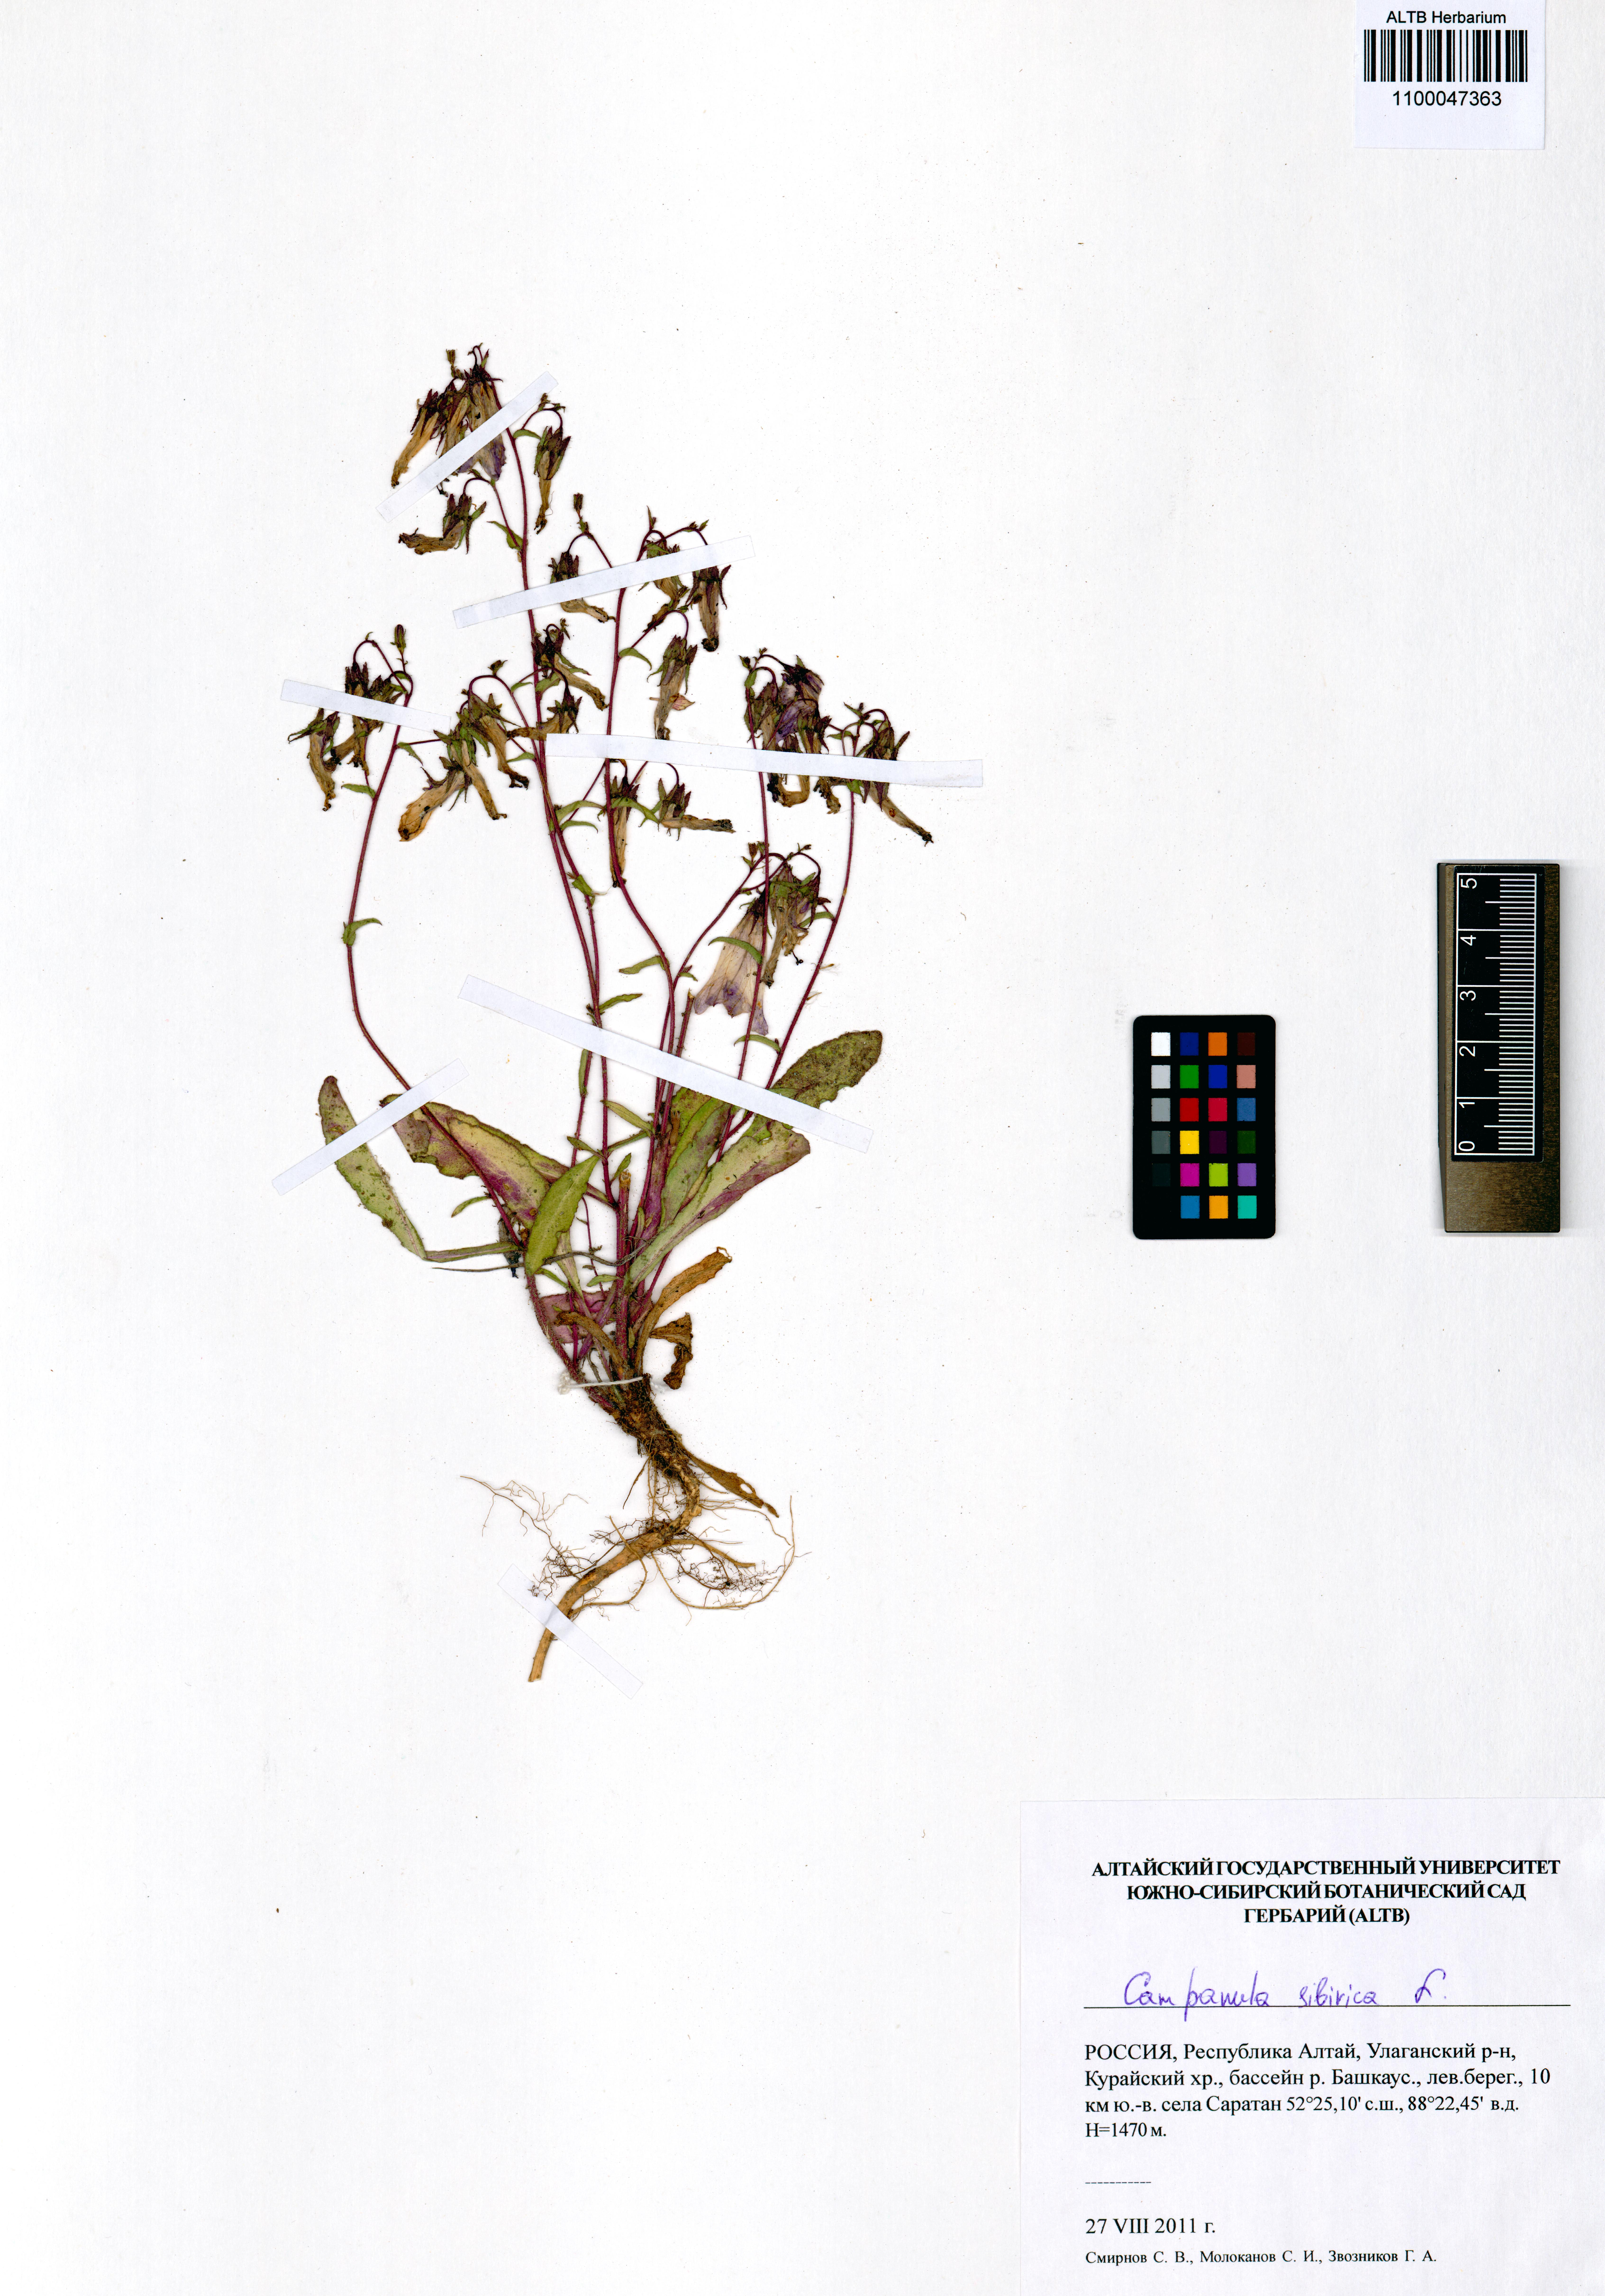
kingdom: Plantae
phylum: Tracheophyta
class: Magnoliopsida
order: Asterales
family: Campanulaceae
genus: Campanula
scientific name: Campanula sibirica
